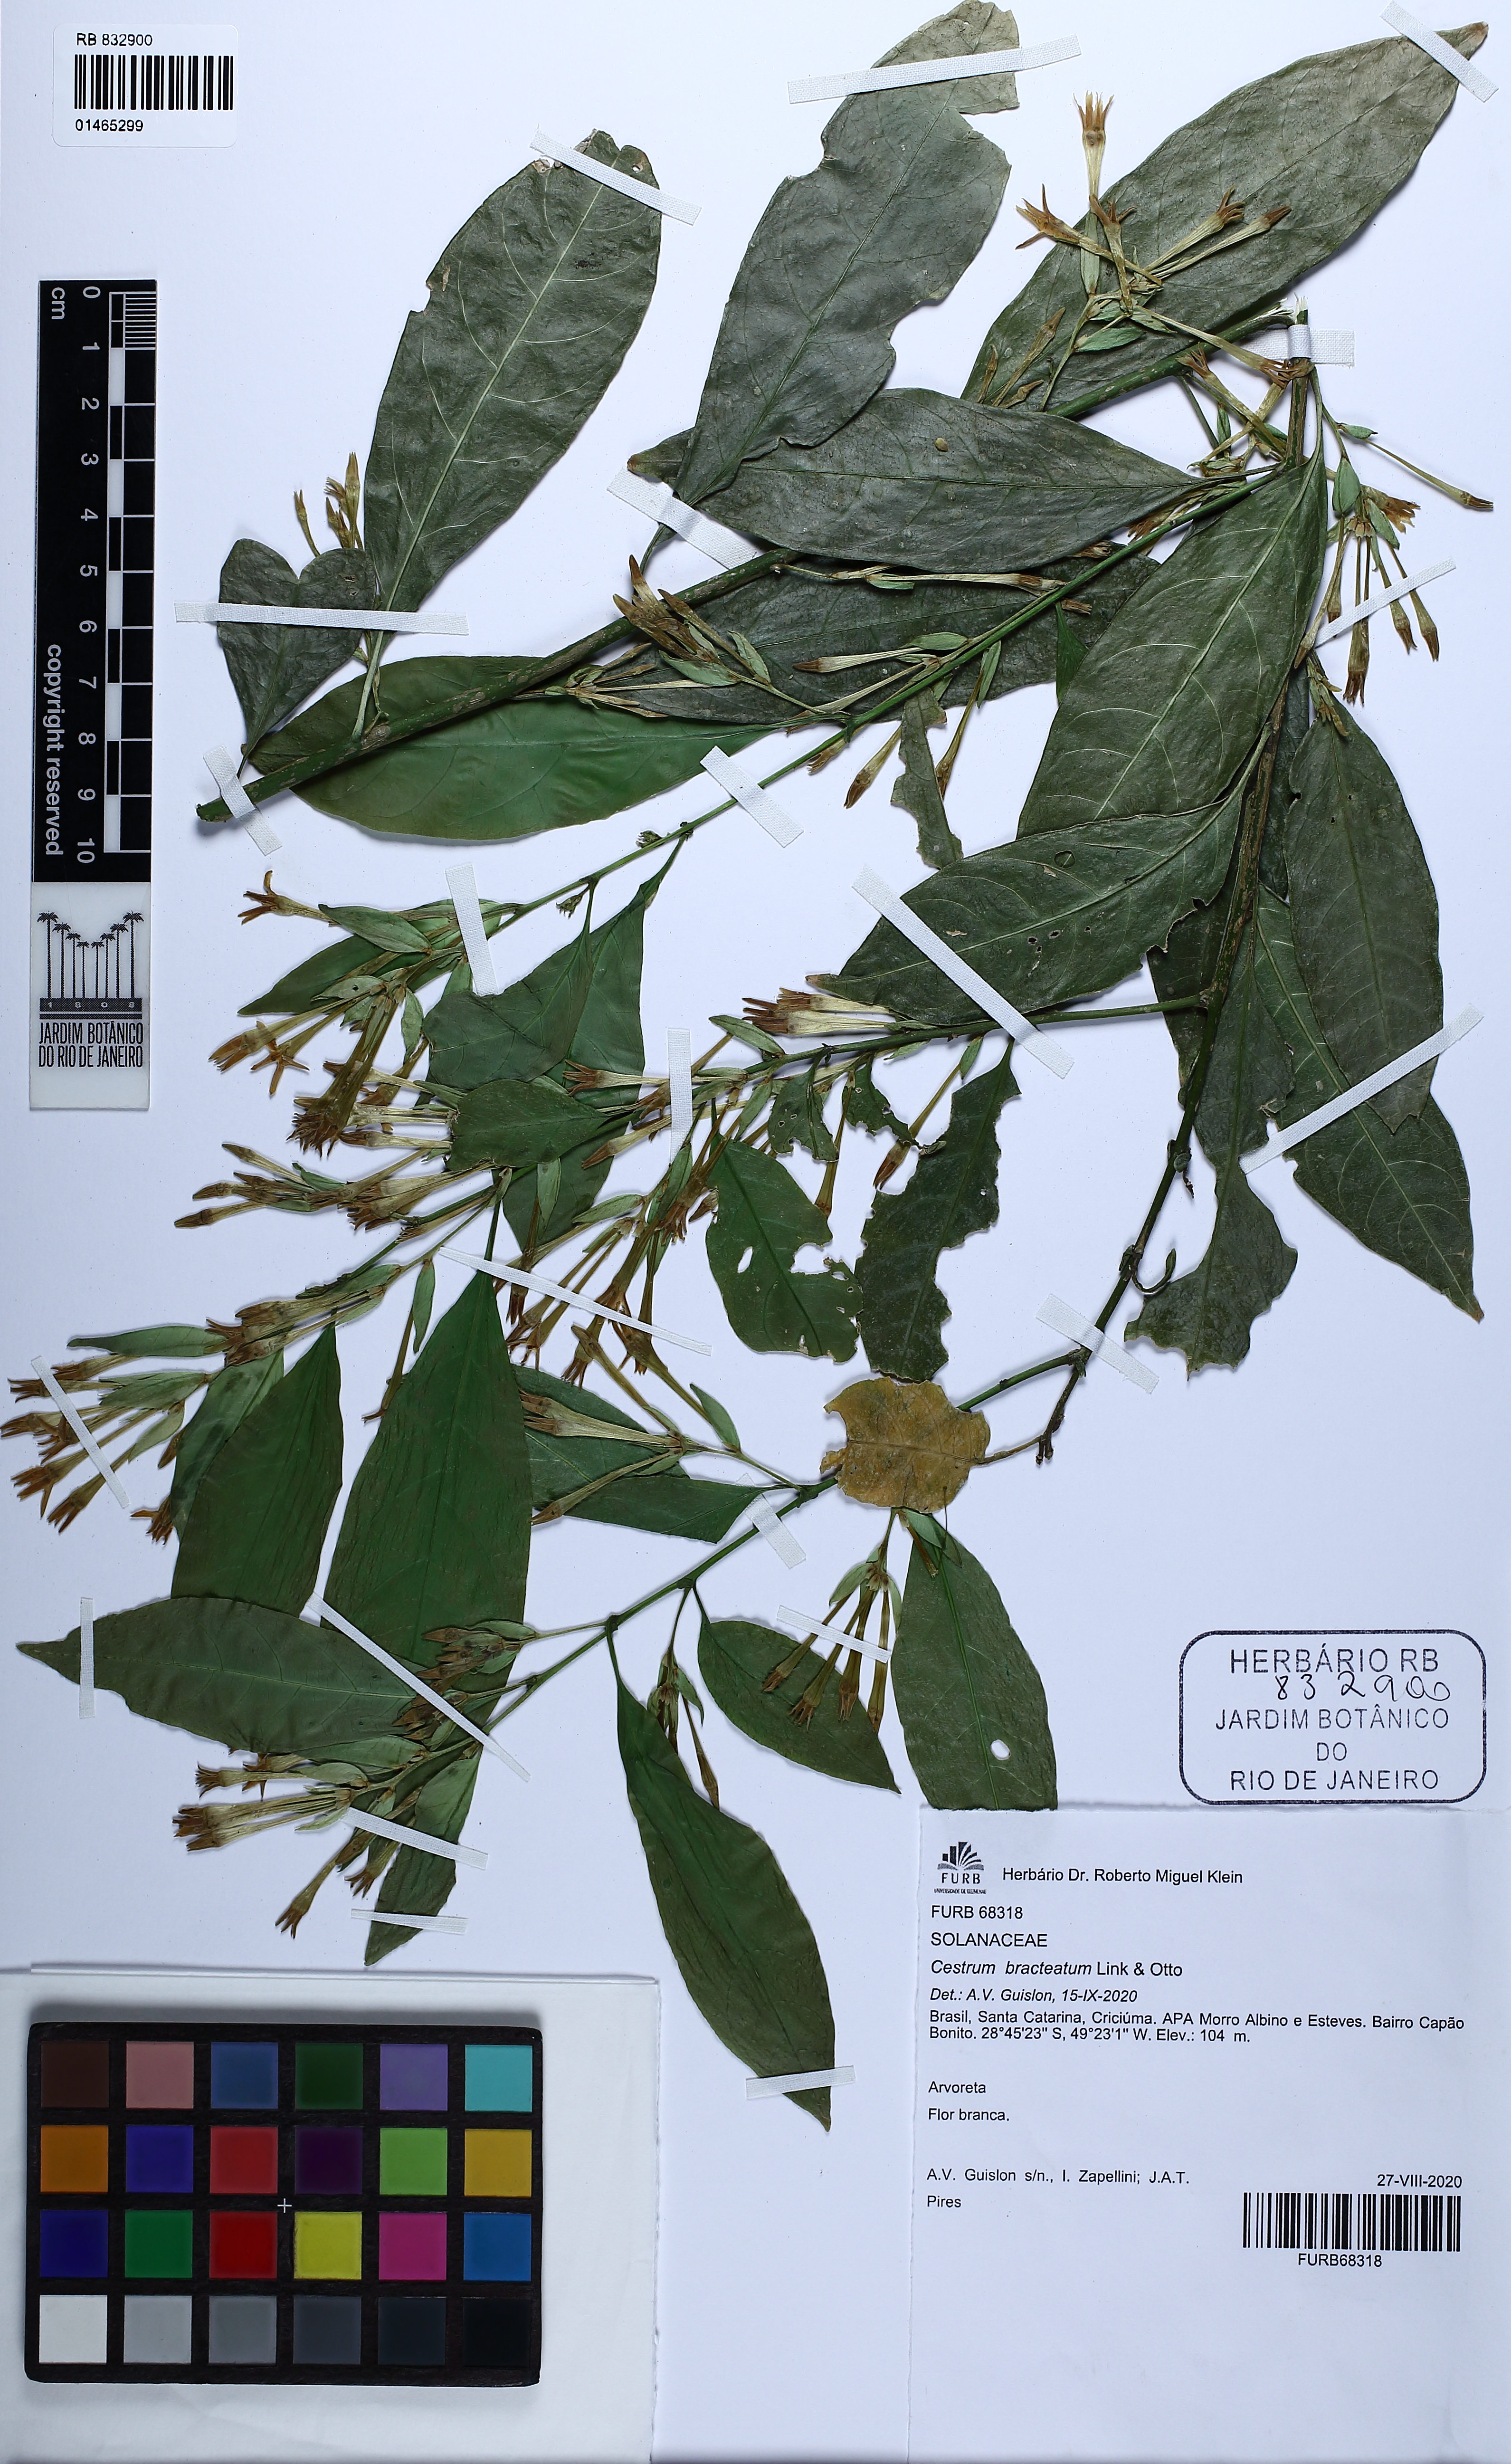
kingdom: Plantae
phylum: Tracheophyta
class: Magnoliopsida
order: Solanales
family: Solanaceae
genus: Cestrum
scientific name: Cestrum bracteatum
